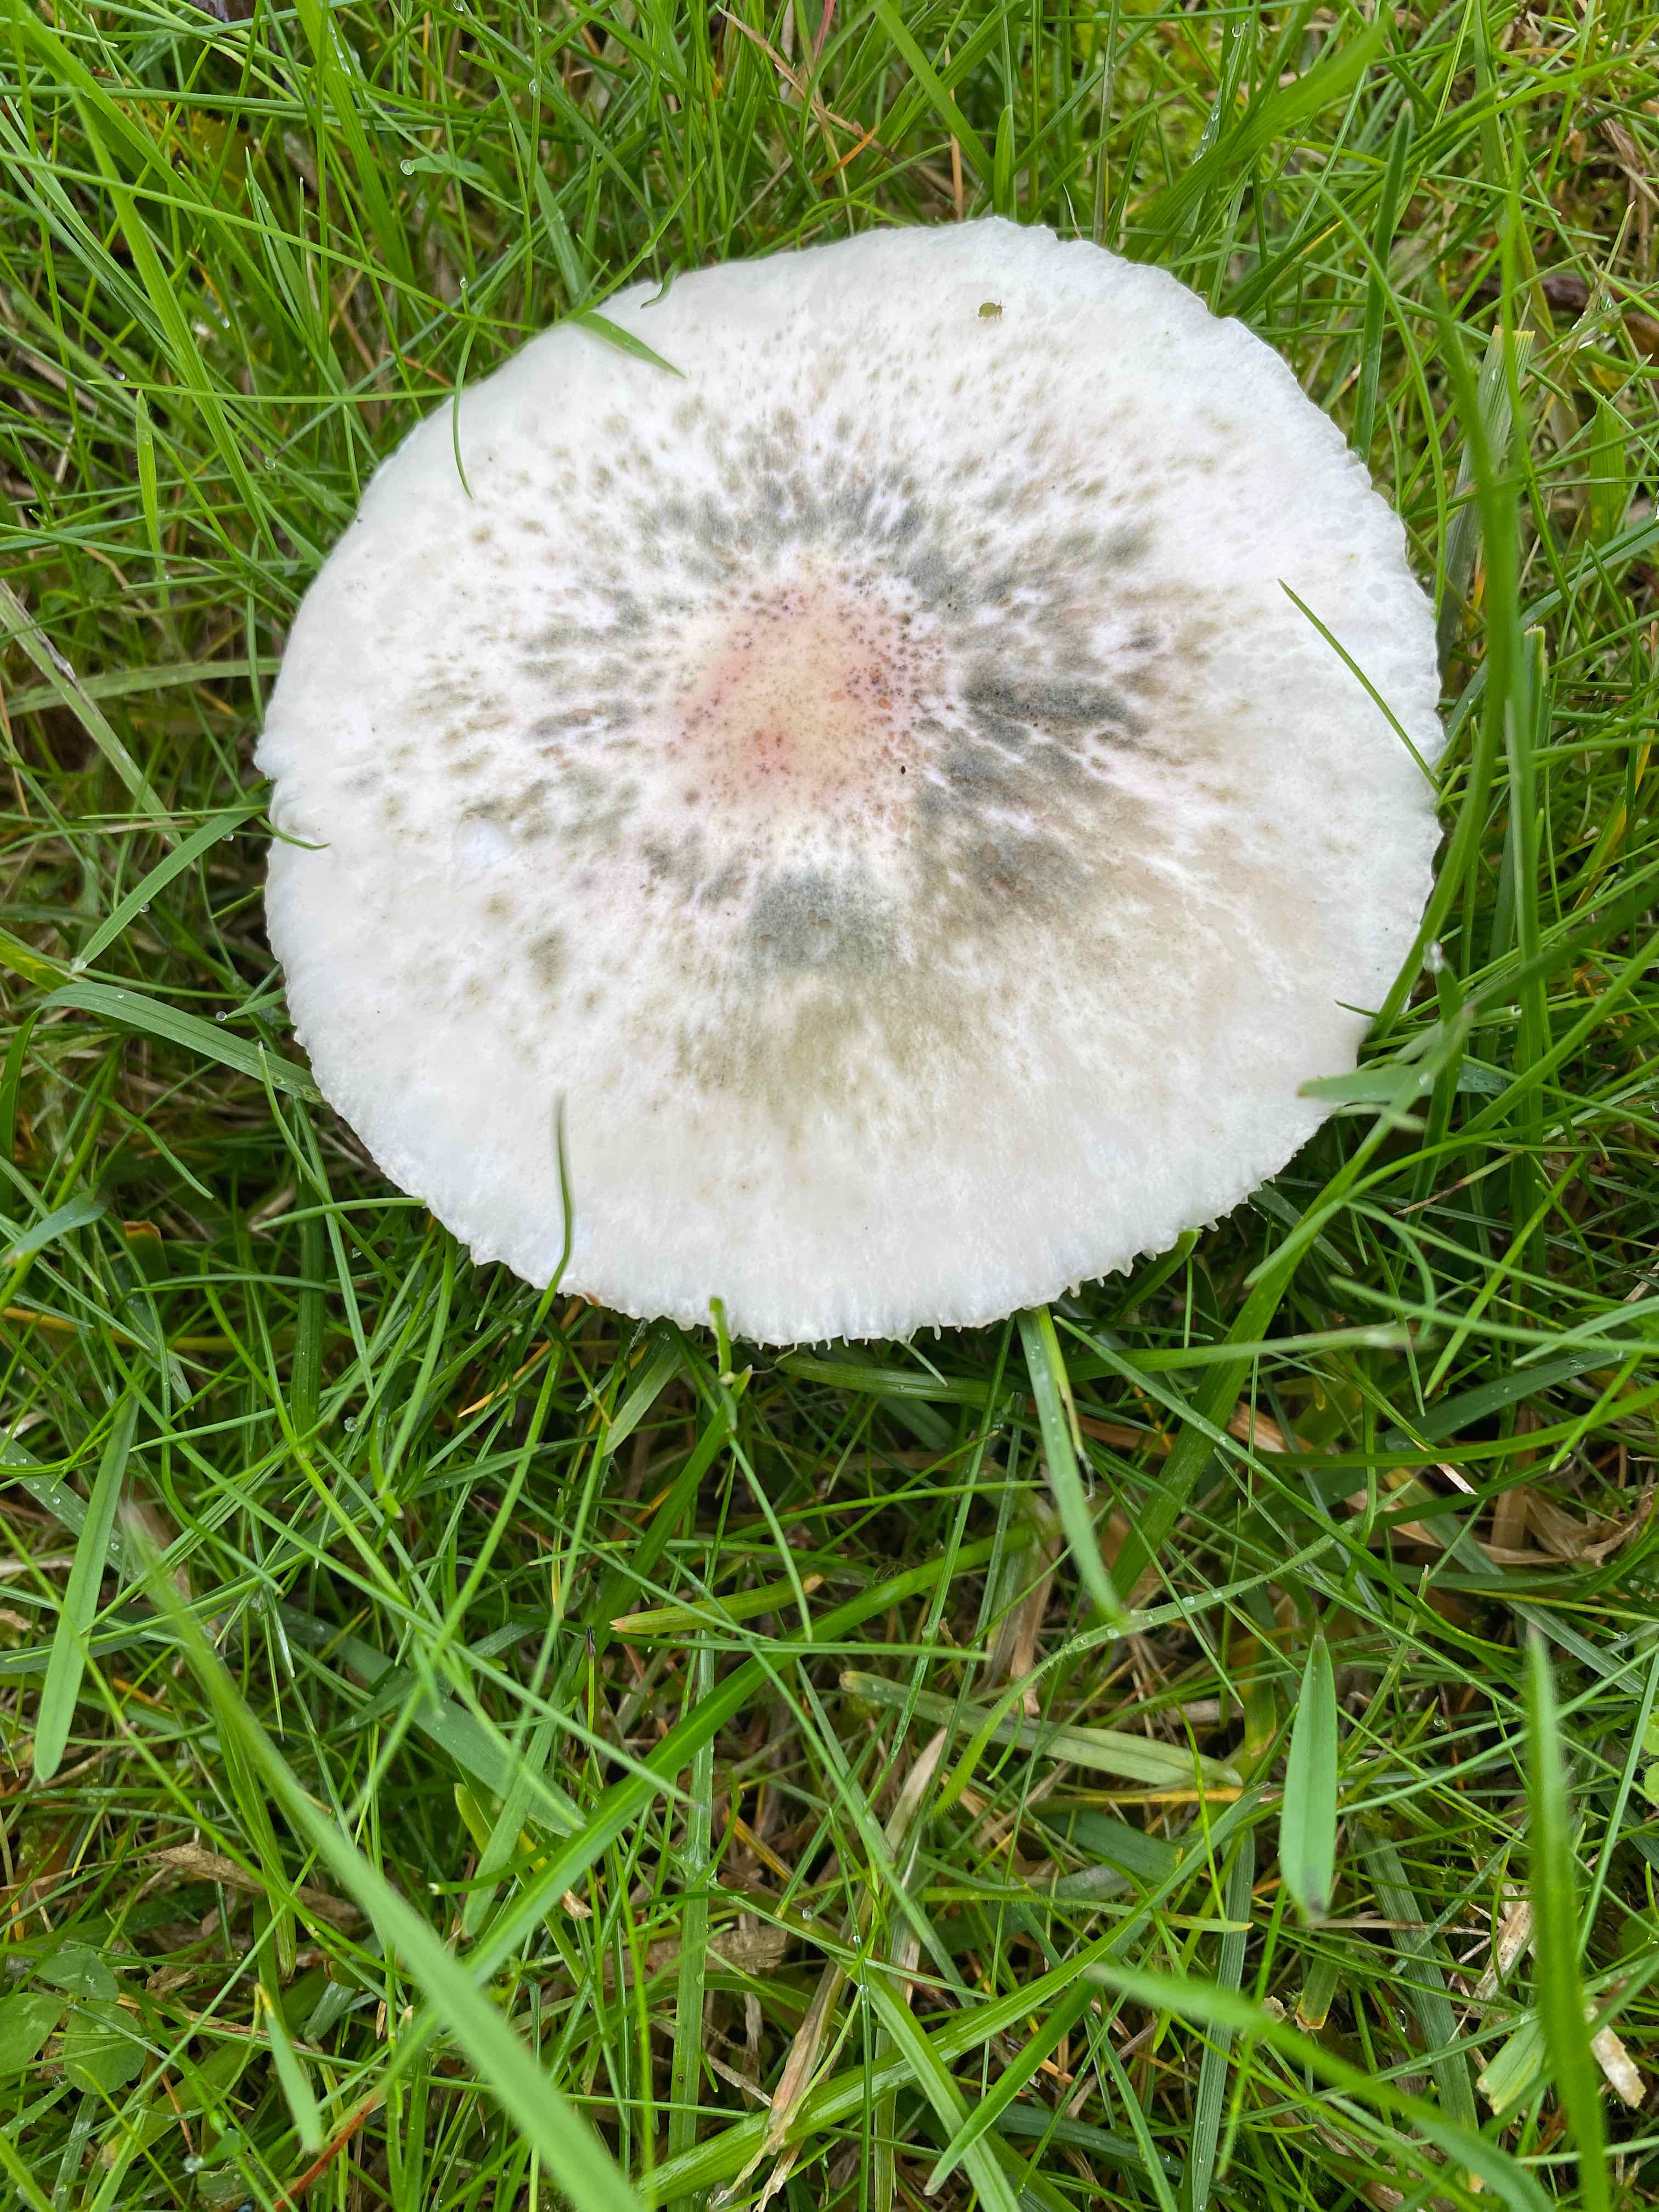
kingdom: Fungi
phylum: Basidiomycota
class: Agaricomycetes
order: Agaricales
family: Agaricaceae
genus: Leucoagaricus
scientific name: Leucoagaricus leucothites
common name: rosabladet silkehat
